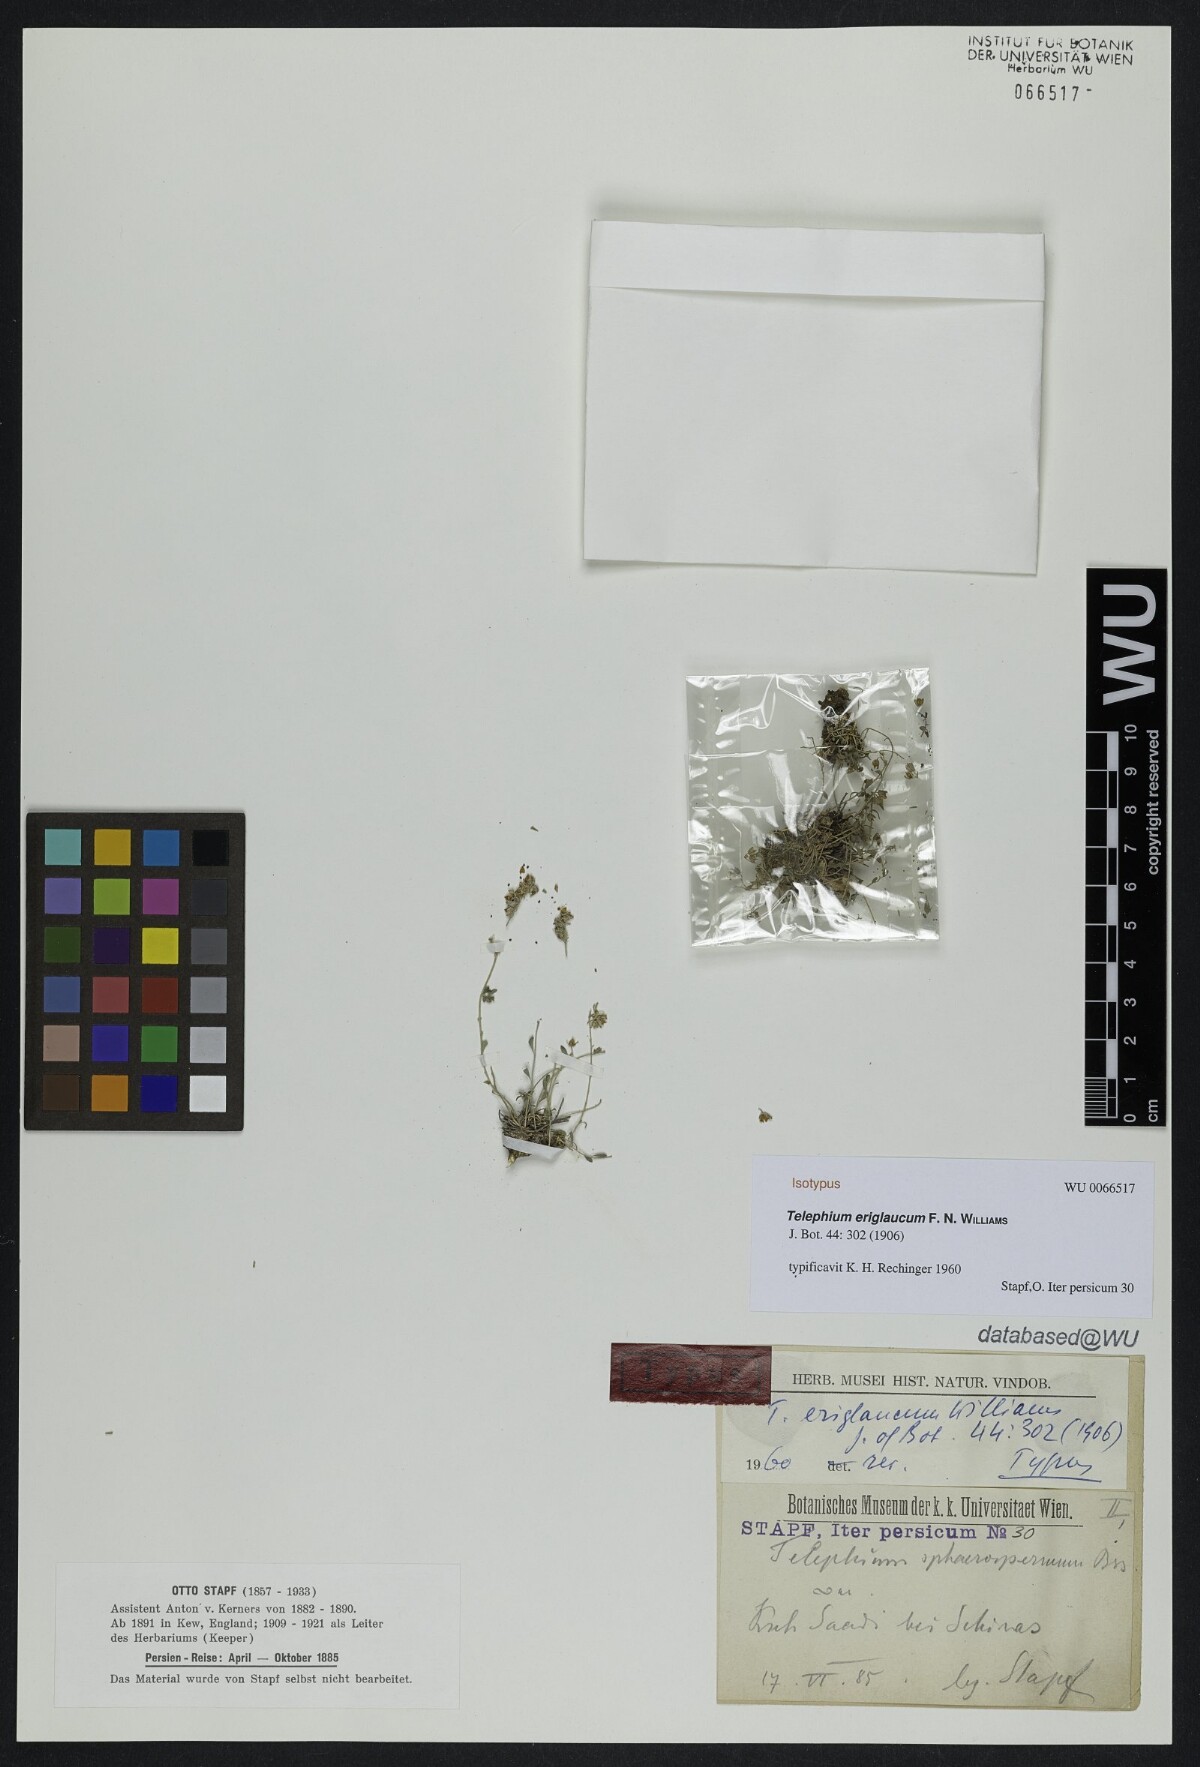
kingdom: Plantae
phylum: Tracheophyta
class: Magnoliopsida
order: Caryophyllales
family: Caryophyllaceae
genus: Telephium
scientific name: Telephium eriglaucum
